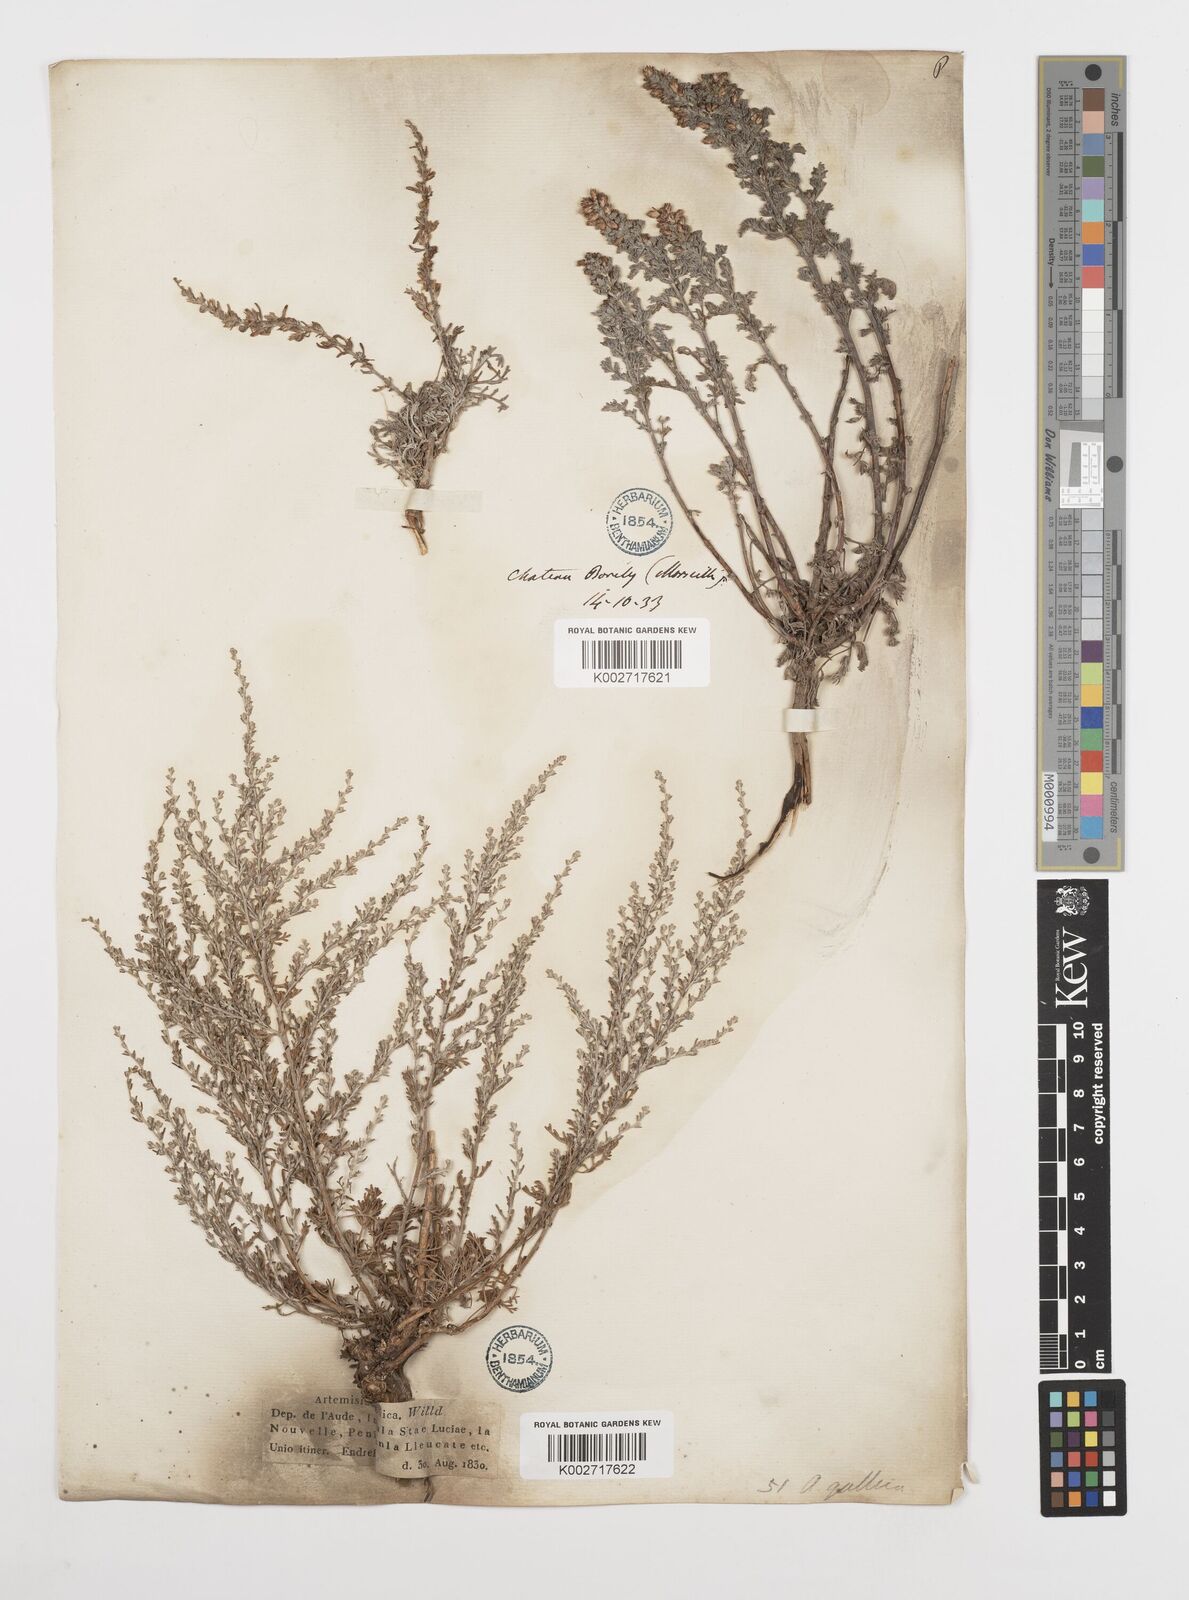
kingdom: Plantae
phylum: Tracheophyta
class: Magnoliopsida
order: Asterales
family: Asteraceae
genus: Artemisia
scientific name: Artemisia campestris
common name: Field wormwood
